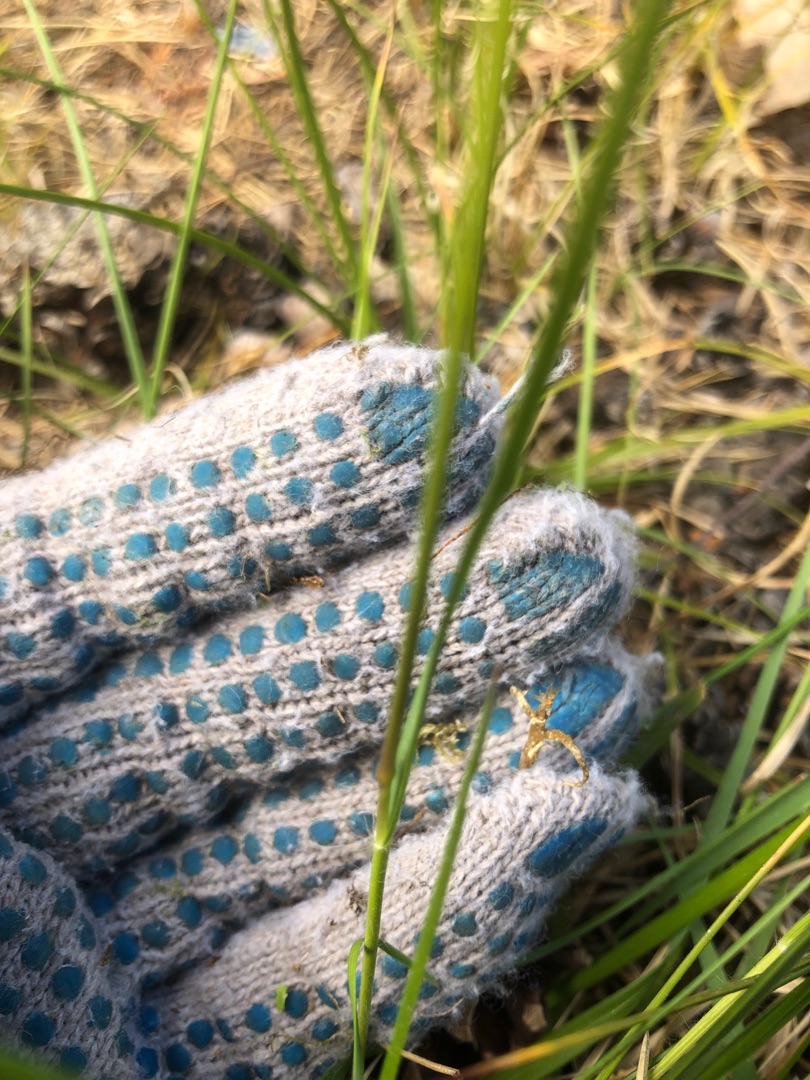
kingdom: Plantae
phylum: Tracheophyta
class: Liliopsida
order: Poales
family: Poaceae
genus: Danthonia
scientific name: Danthonia decumbens
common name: Tandbælg
